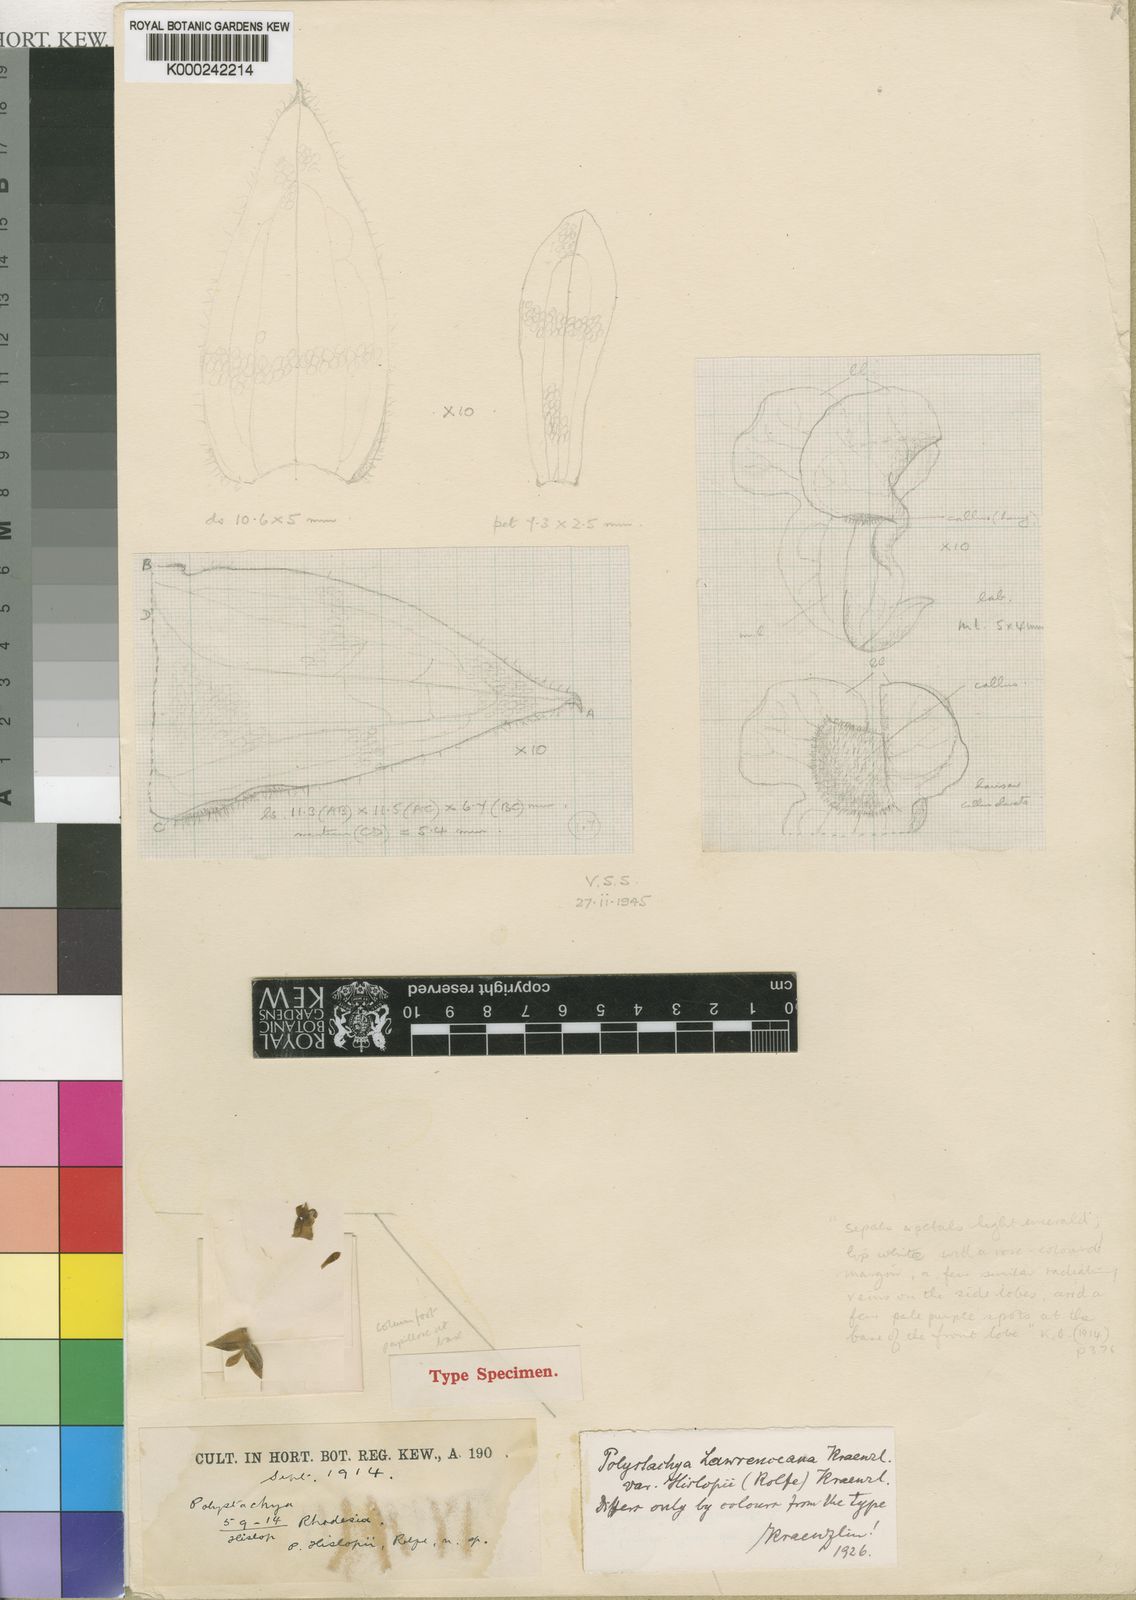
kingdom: Plantae
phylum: Tracheophyta
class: Liliopsida
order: Asparagales
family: Orchidaceae
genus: Polystachya
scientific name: Polystachya zambesiaca
